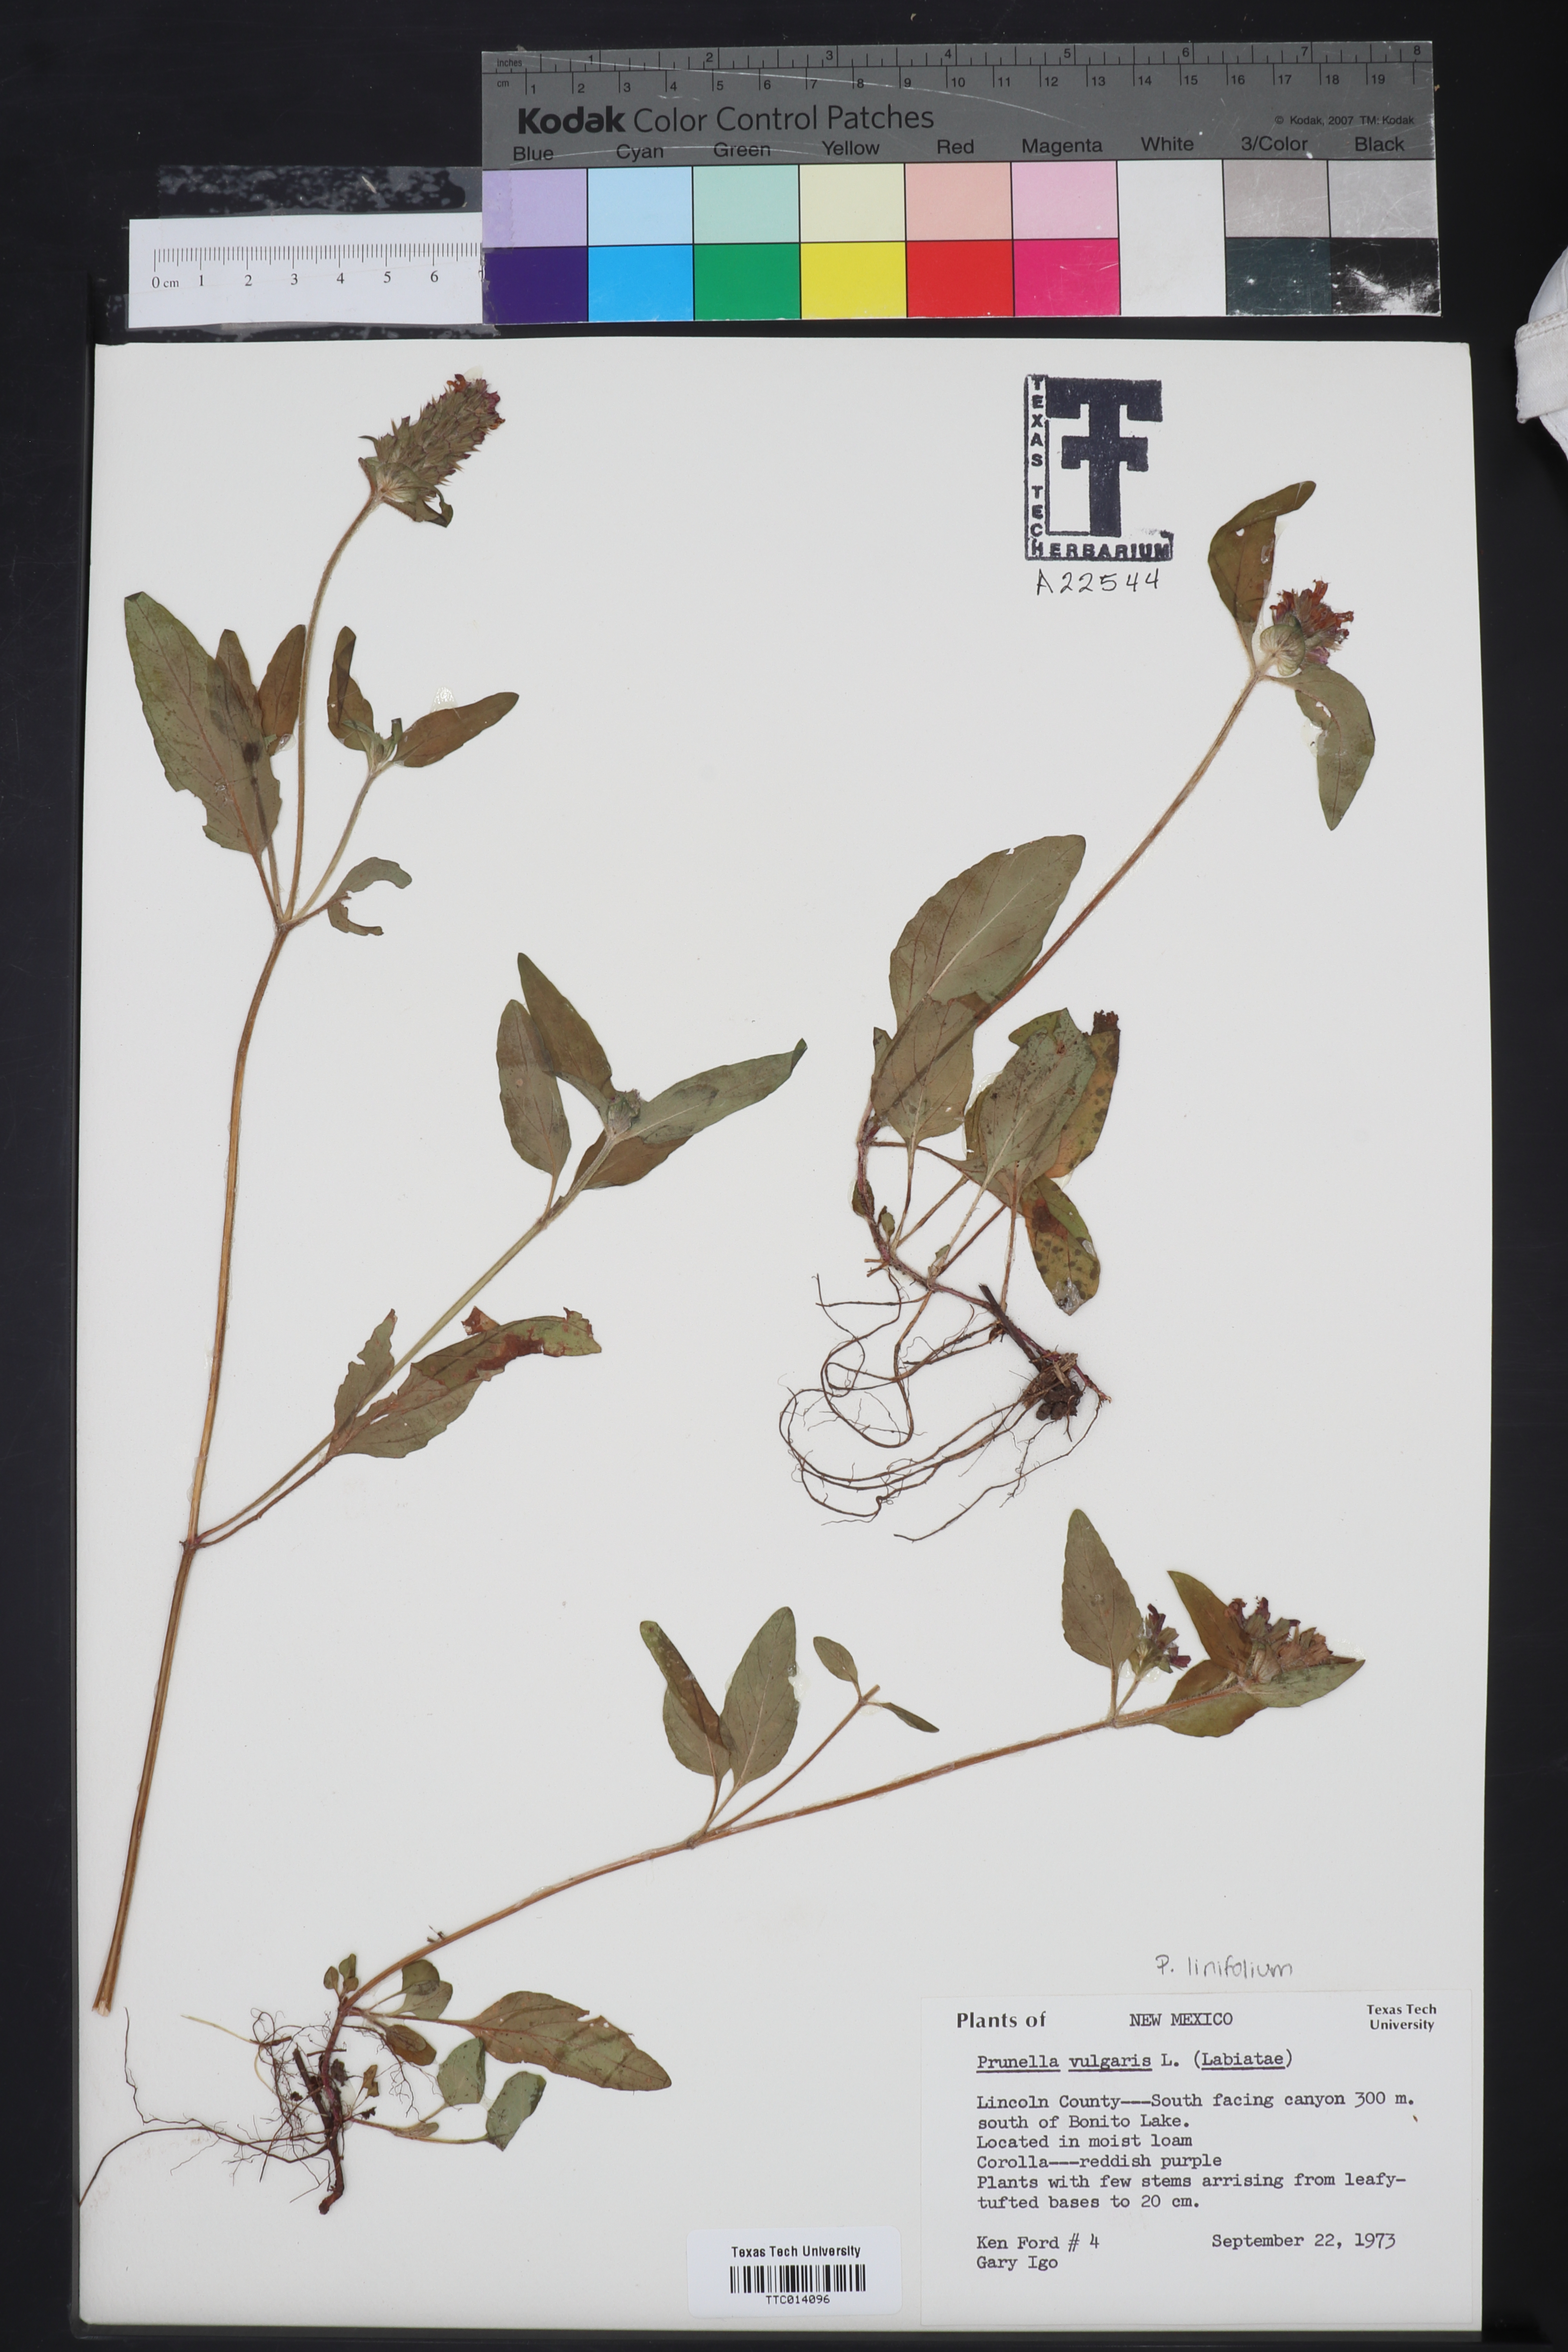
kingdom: Plantae
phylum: Tracheophyta
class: Magnoliopsida
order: Lamiales
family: Lamiaceae
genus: Prunella
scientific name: Prunella vulgaris
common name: Heal-all
